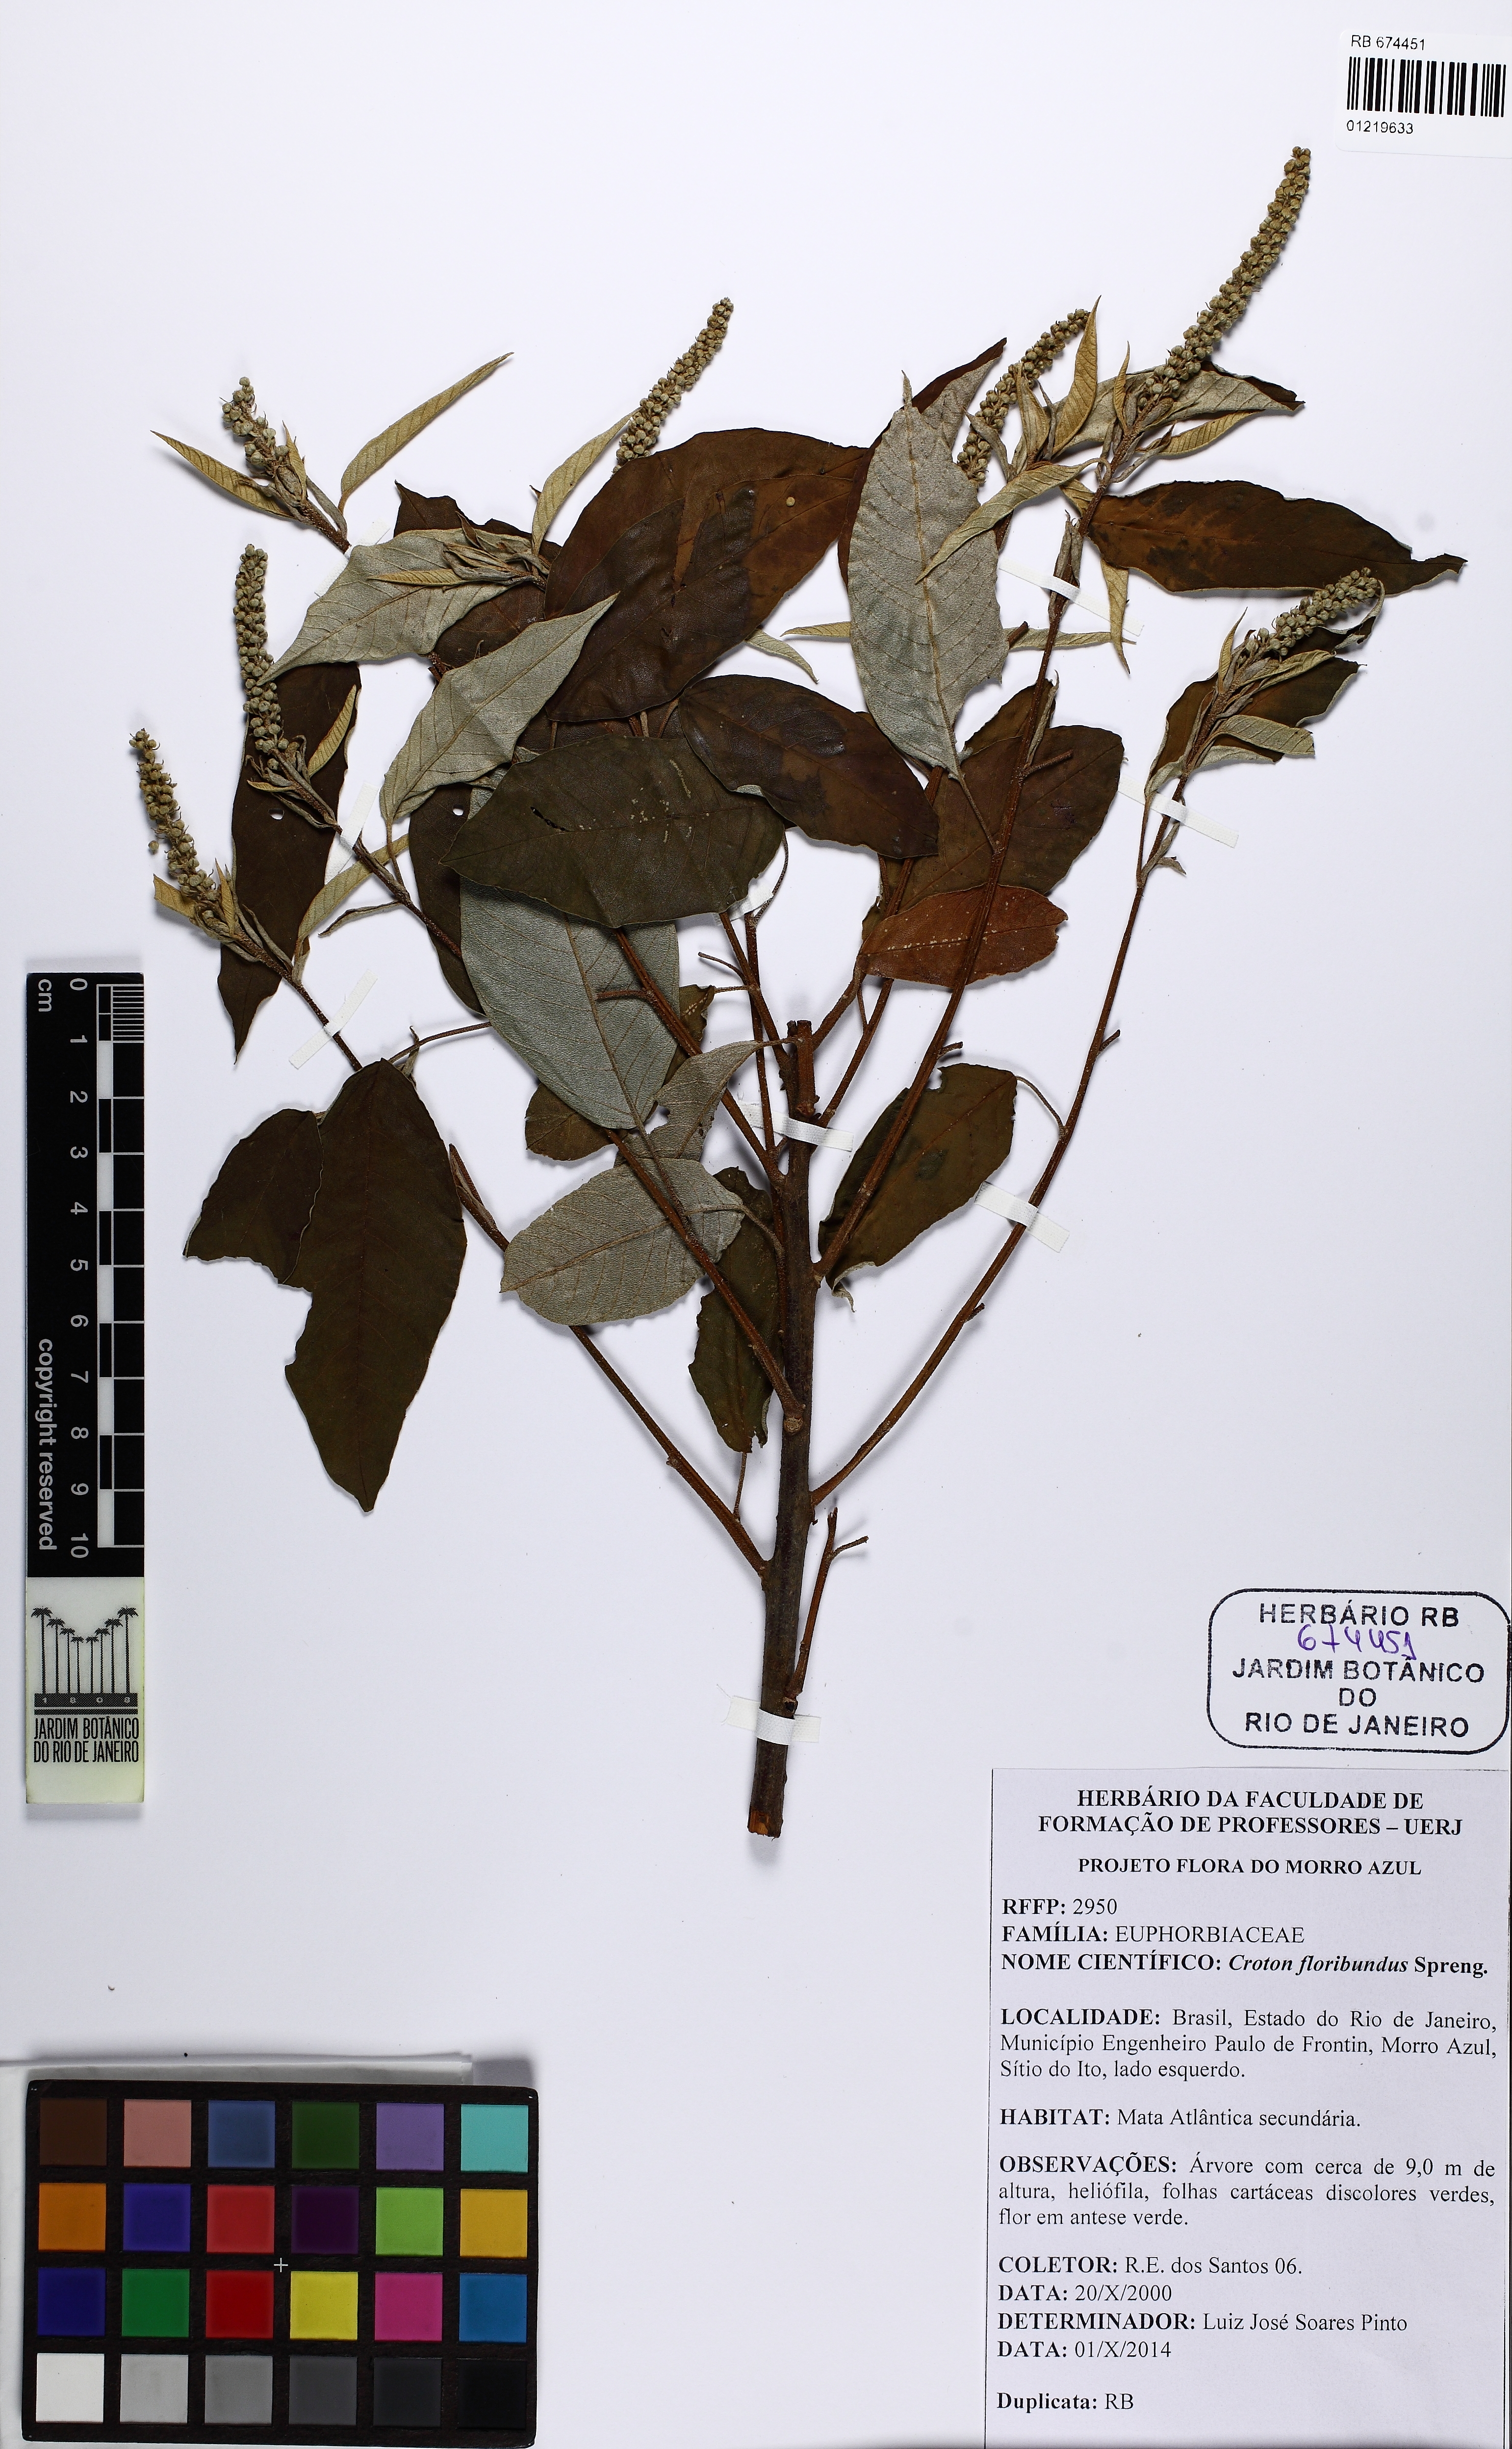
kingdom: Plantae
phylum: Tracheophyta
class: Magnoliopsida
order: Malpighiales
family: Euphorbiaceae
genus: Croton
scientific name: Croton floribundus
